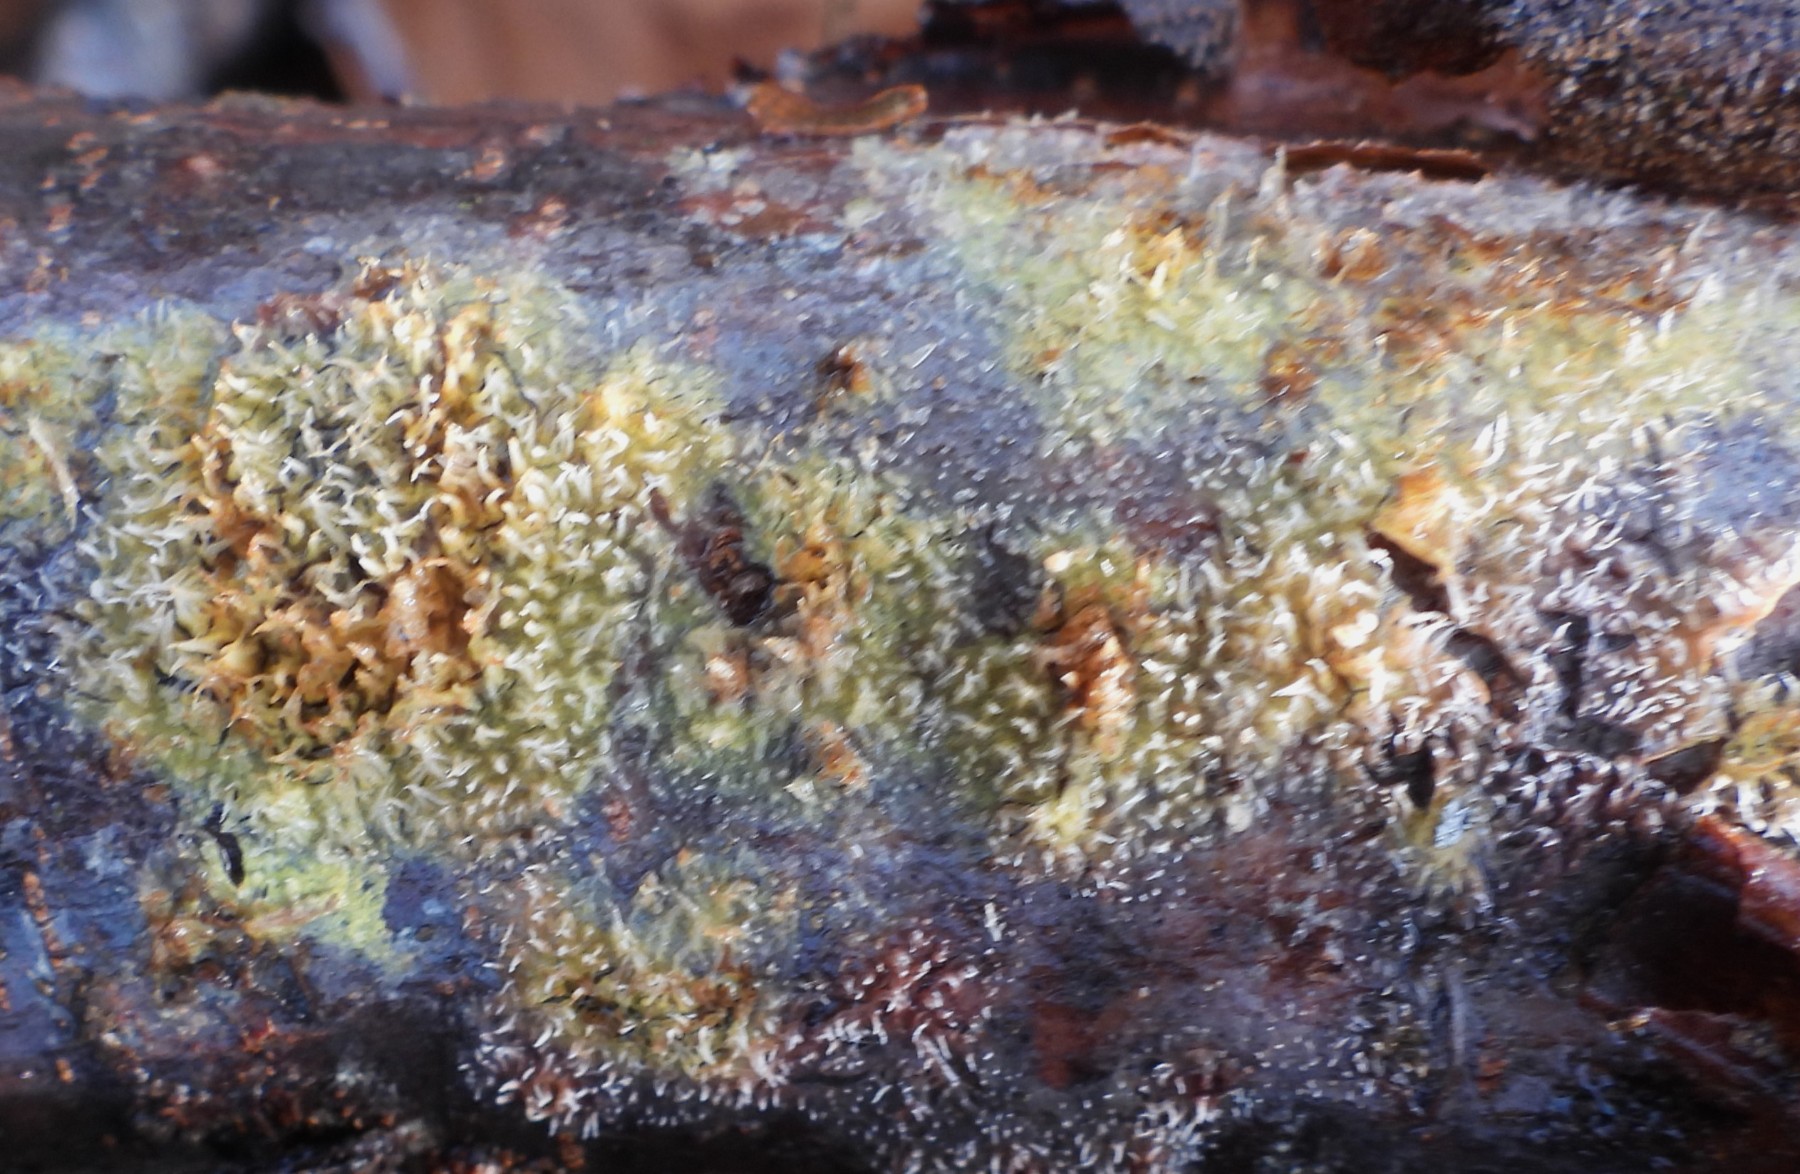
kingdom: Fungi
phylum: Basidiomycota
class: Agaricomycetes
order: Polyporales
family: Meruliaceae
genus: Mycoacia
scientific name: Mycoacia uda
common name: citrongul vokspig
